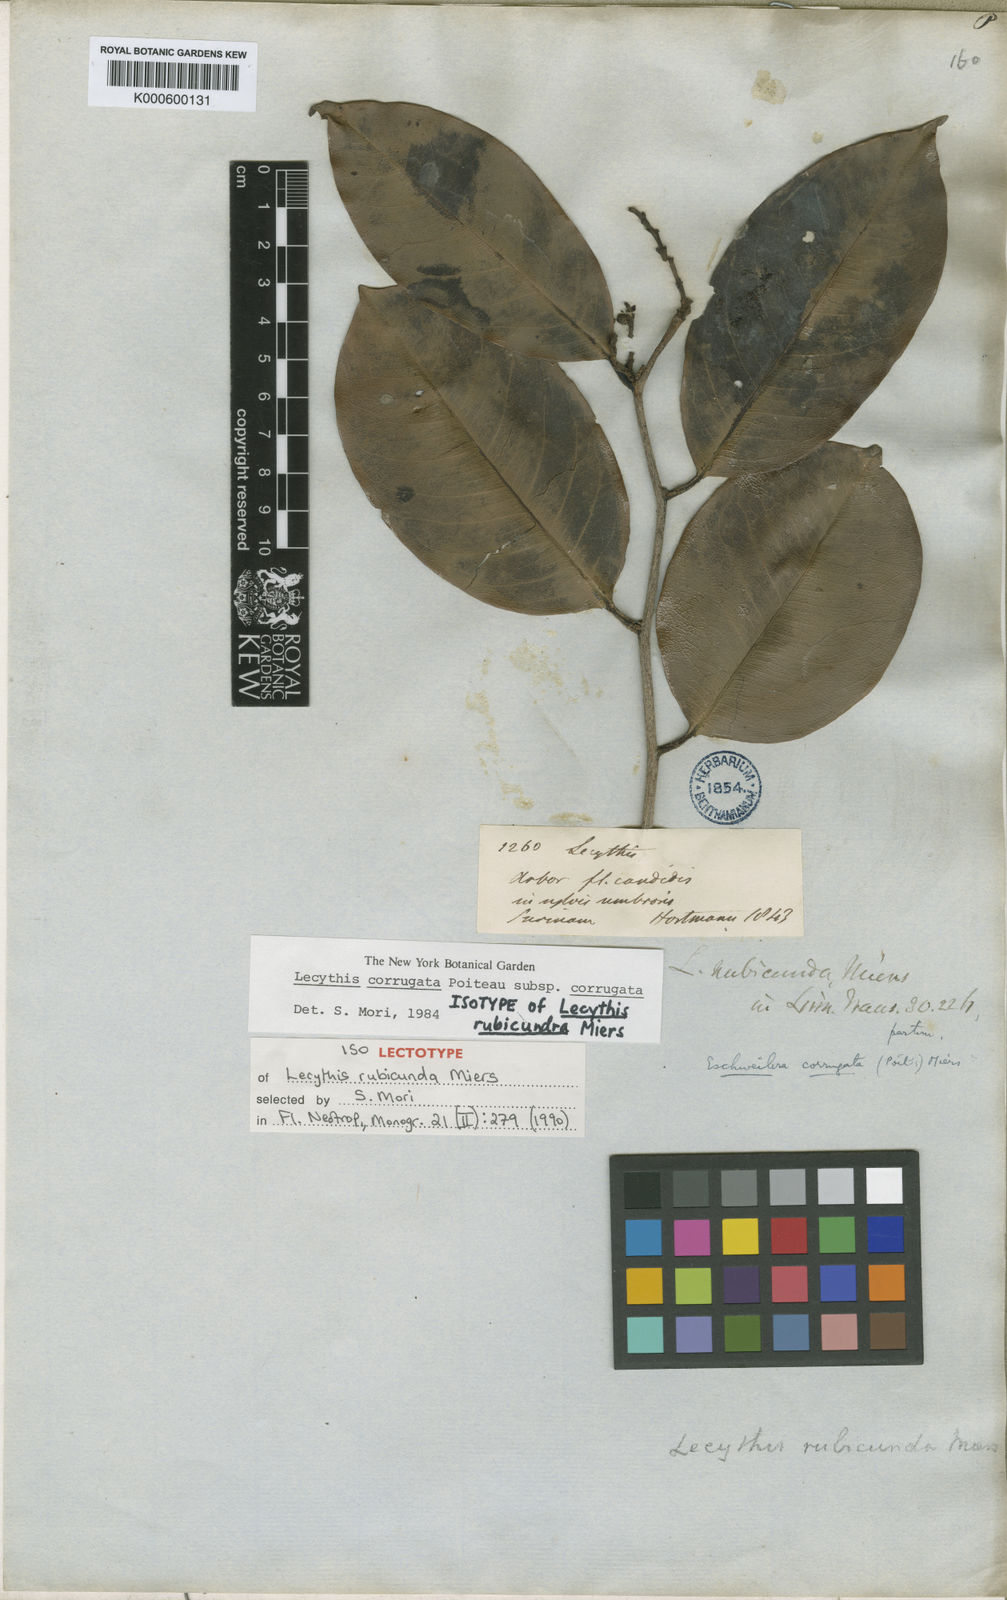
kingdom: Plantae
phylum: Tracheophyta
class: Magnoliopsida
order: Ericales
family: Lecythidaceae
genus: Lecythis
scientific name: Lecythis corrugata
